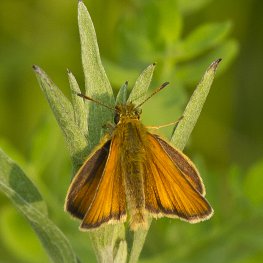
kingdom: Animalia
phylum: Arthropoda
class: Insecta
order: Lepidoptera
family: Hesperiidae
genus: Thymelicus
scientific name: Thymelicus lineola
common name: European Skipper
